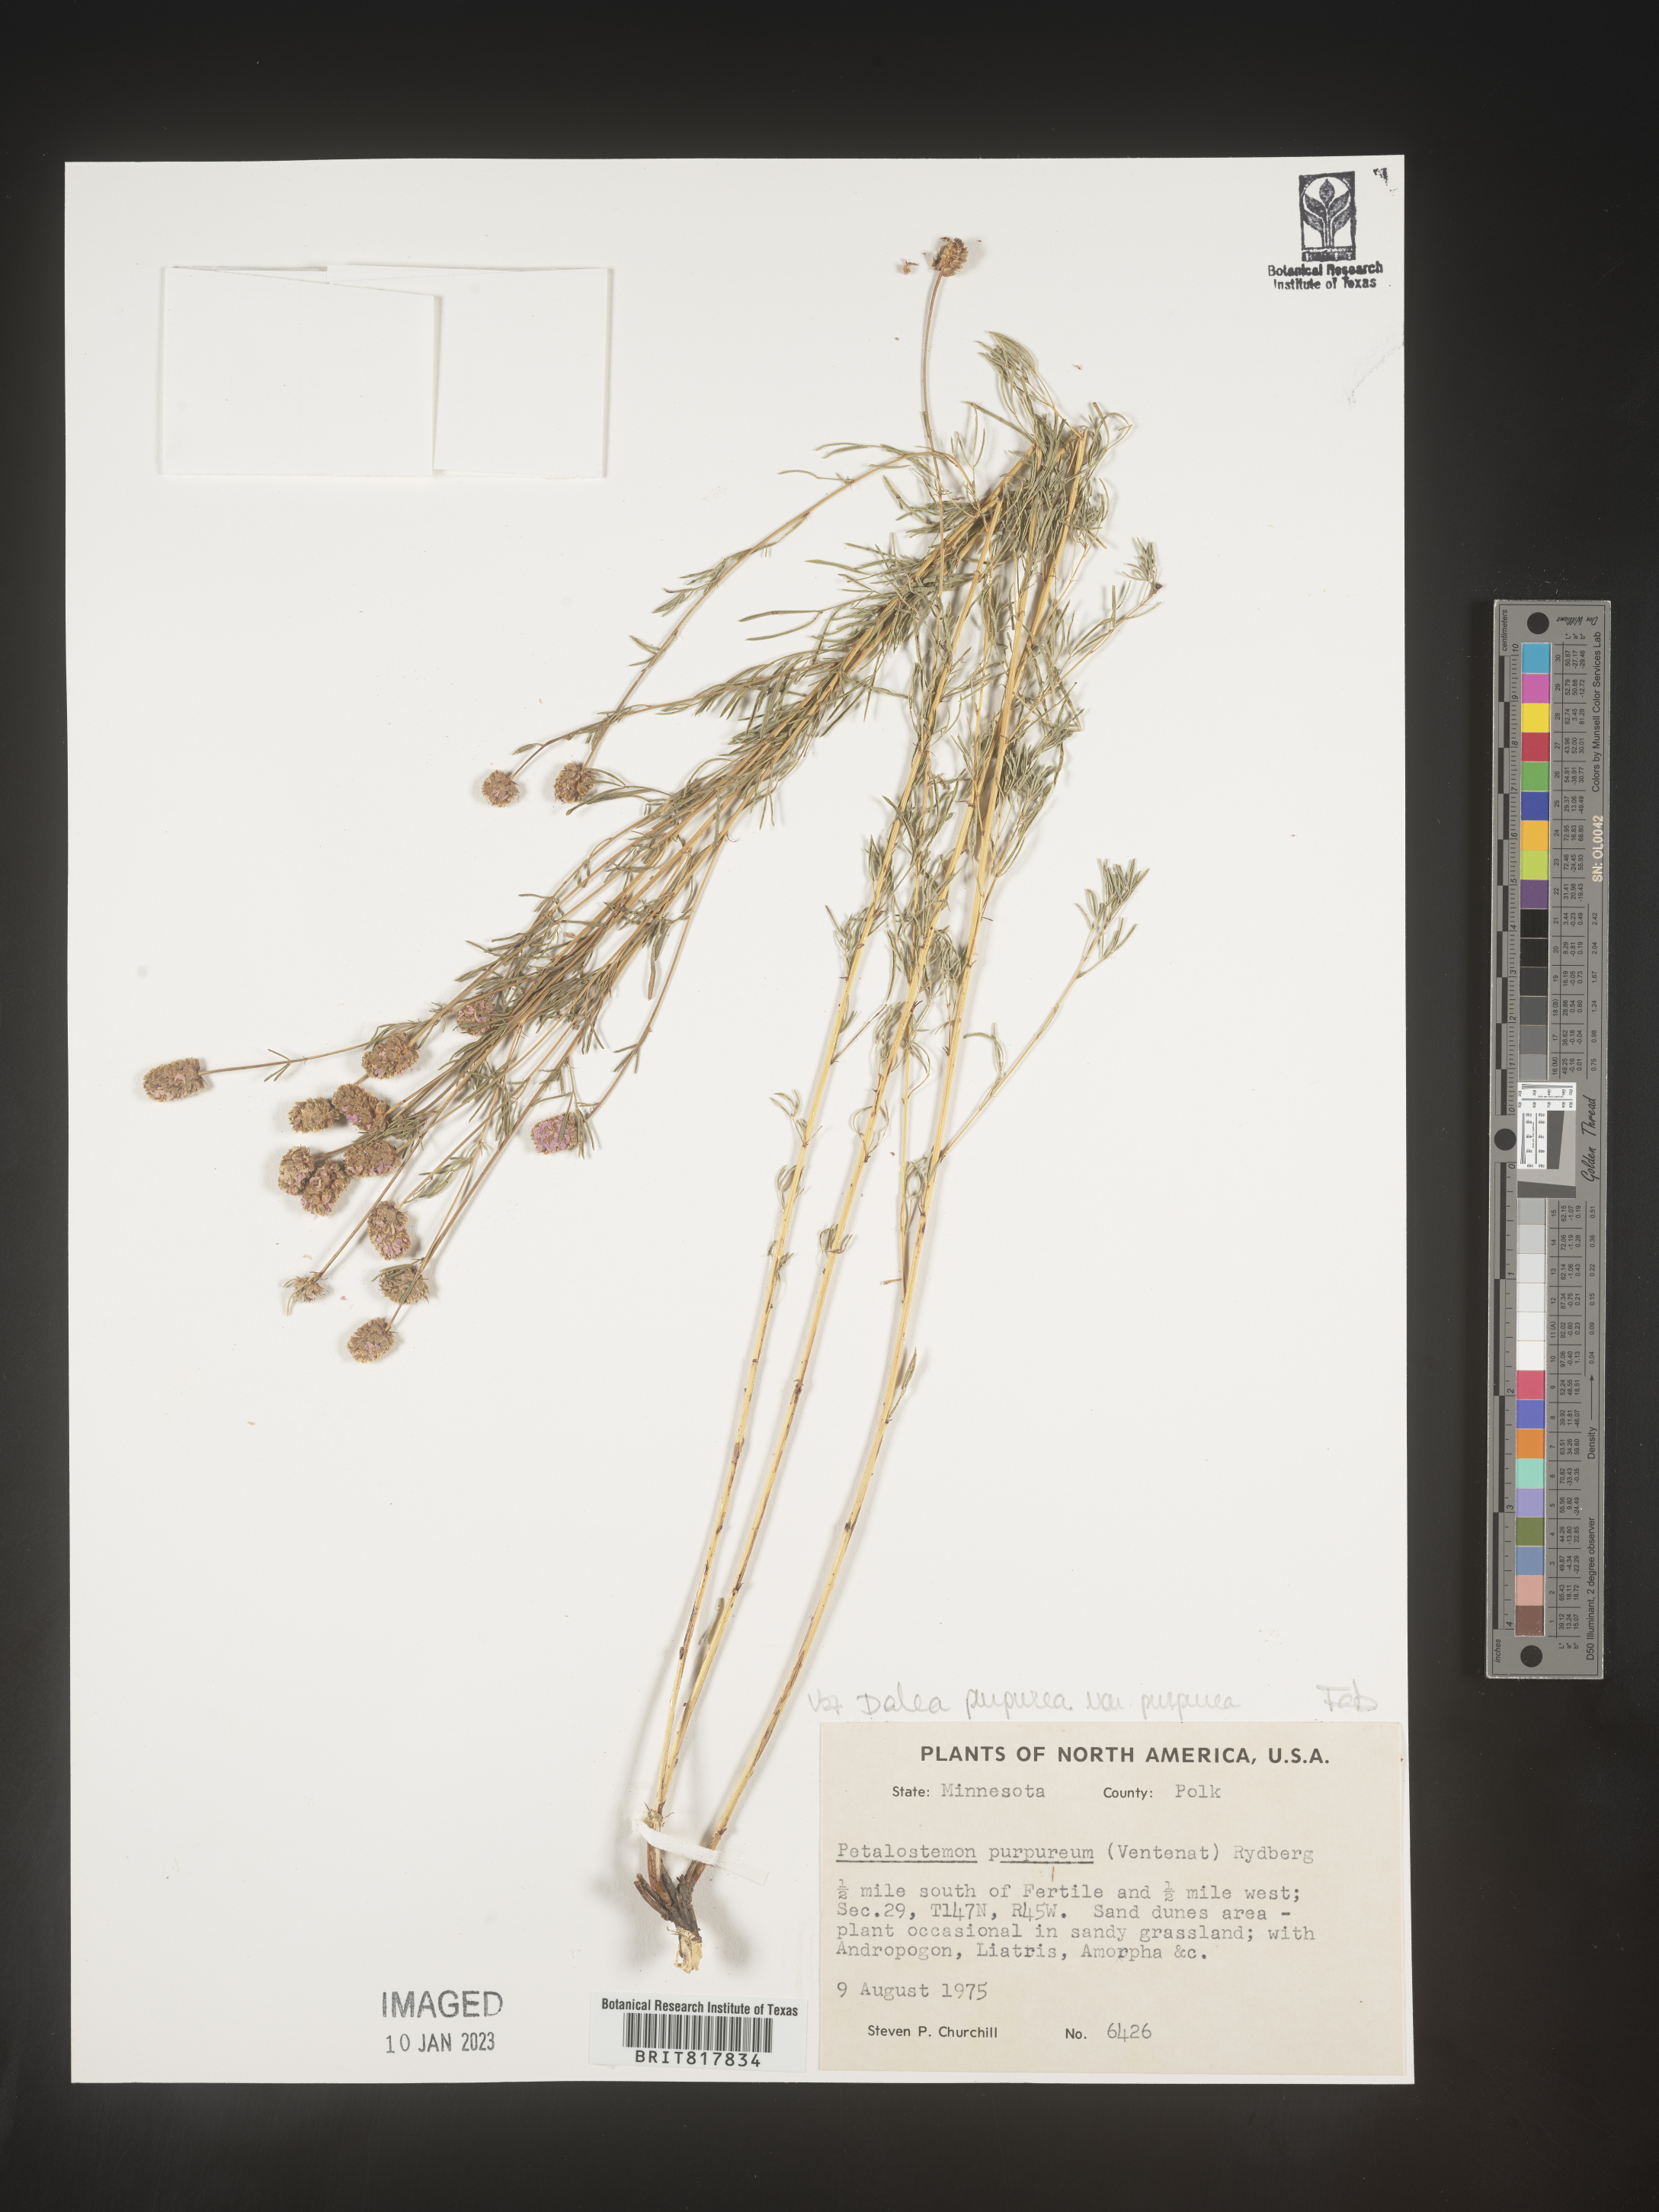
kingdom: Plantae
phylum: Tracheophyta
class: Magnoliopsida
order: Fabales
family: Fabaceae
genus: Dalea
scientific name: Dalea purpurea
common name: Purple prairie-clover
